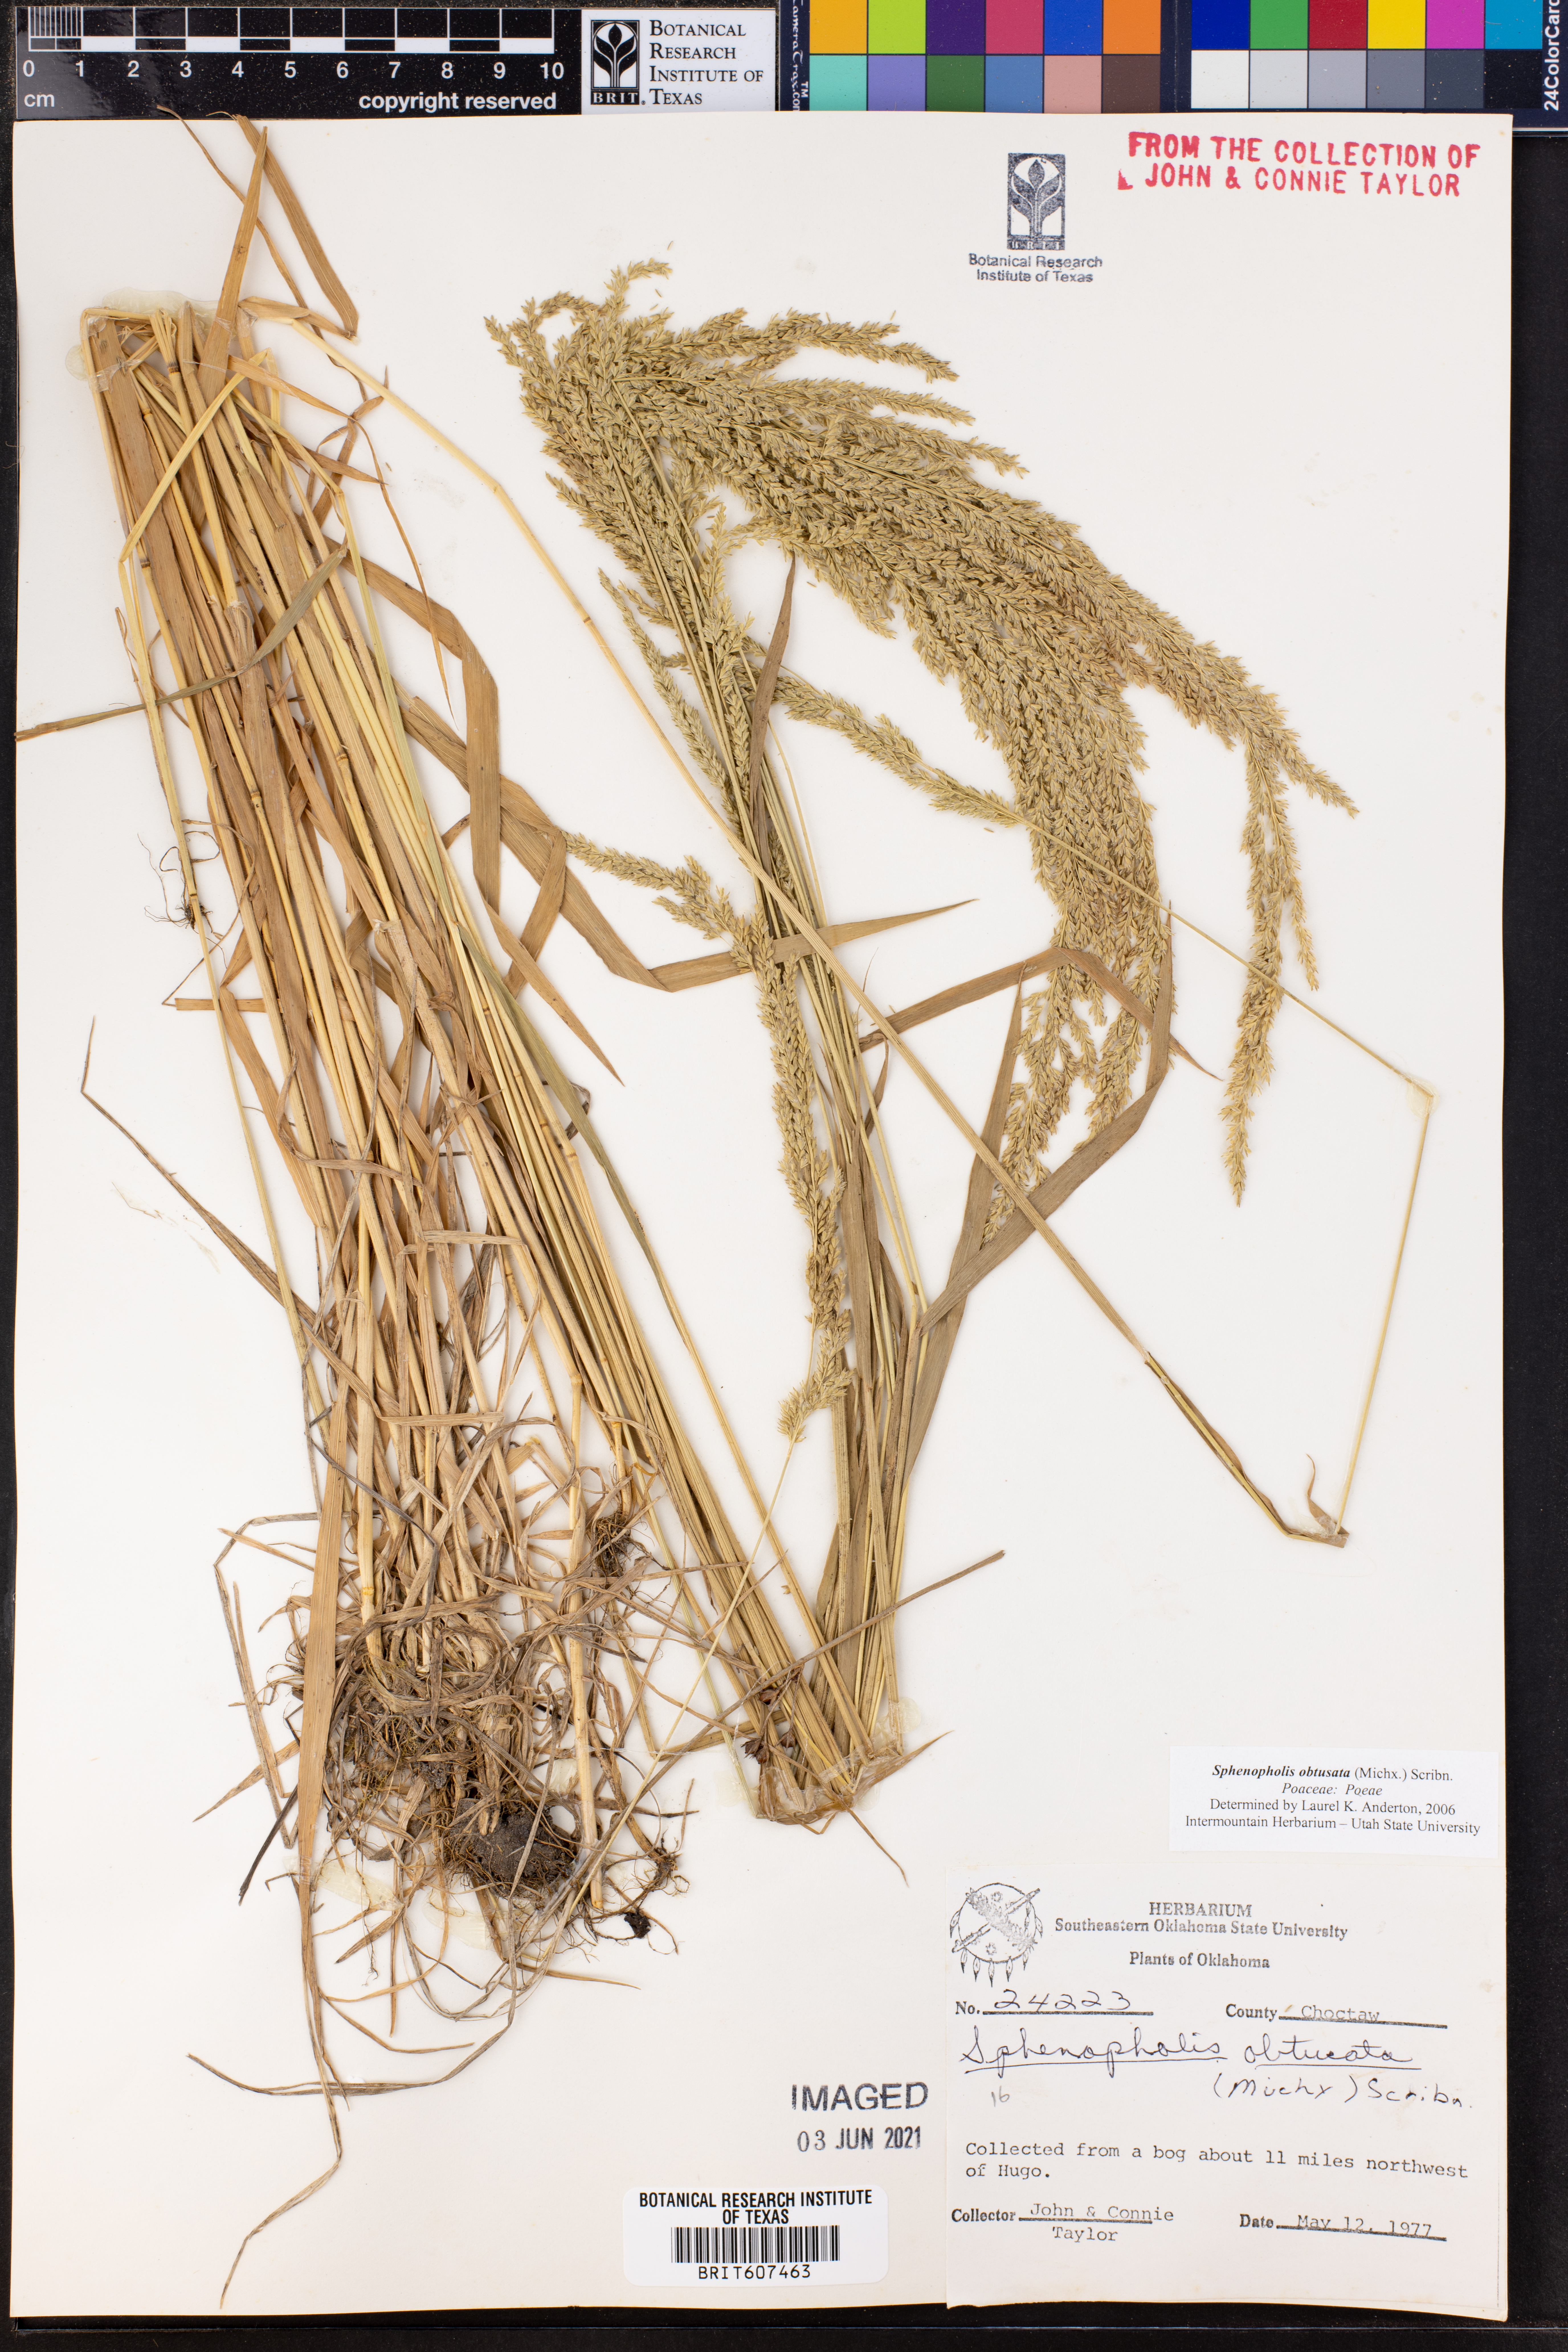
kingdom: Plantae
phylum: Tracheophyta
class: Liliopsida
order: Poales
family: Poaceae
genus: Sphenopholis
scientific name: Sphenopholis obtusata
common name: Prairie grass
